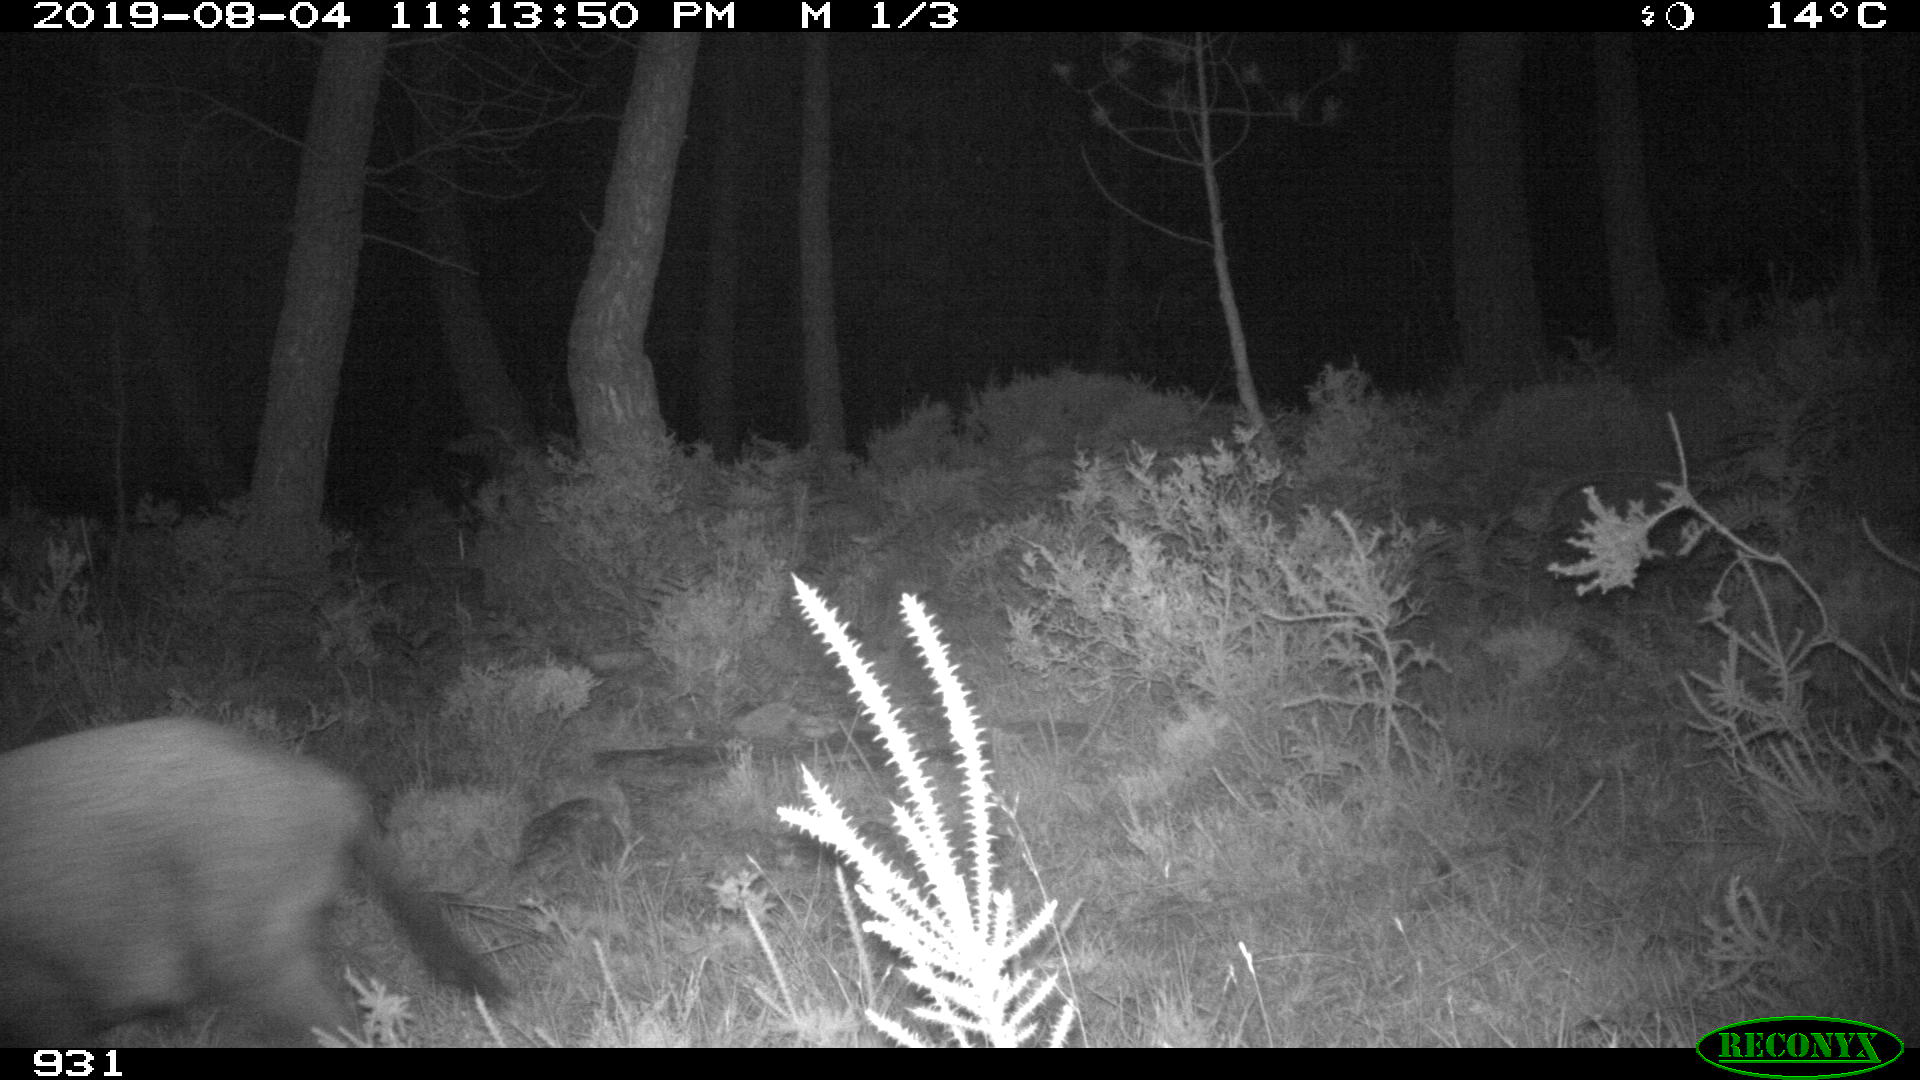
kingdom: Animalia
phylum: Chordata
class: Mammalia
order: Artiodactyla
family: Suidae
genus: Sus
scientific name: Sus scrofa
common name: Wild boar
